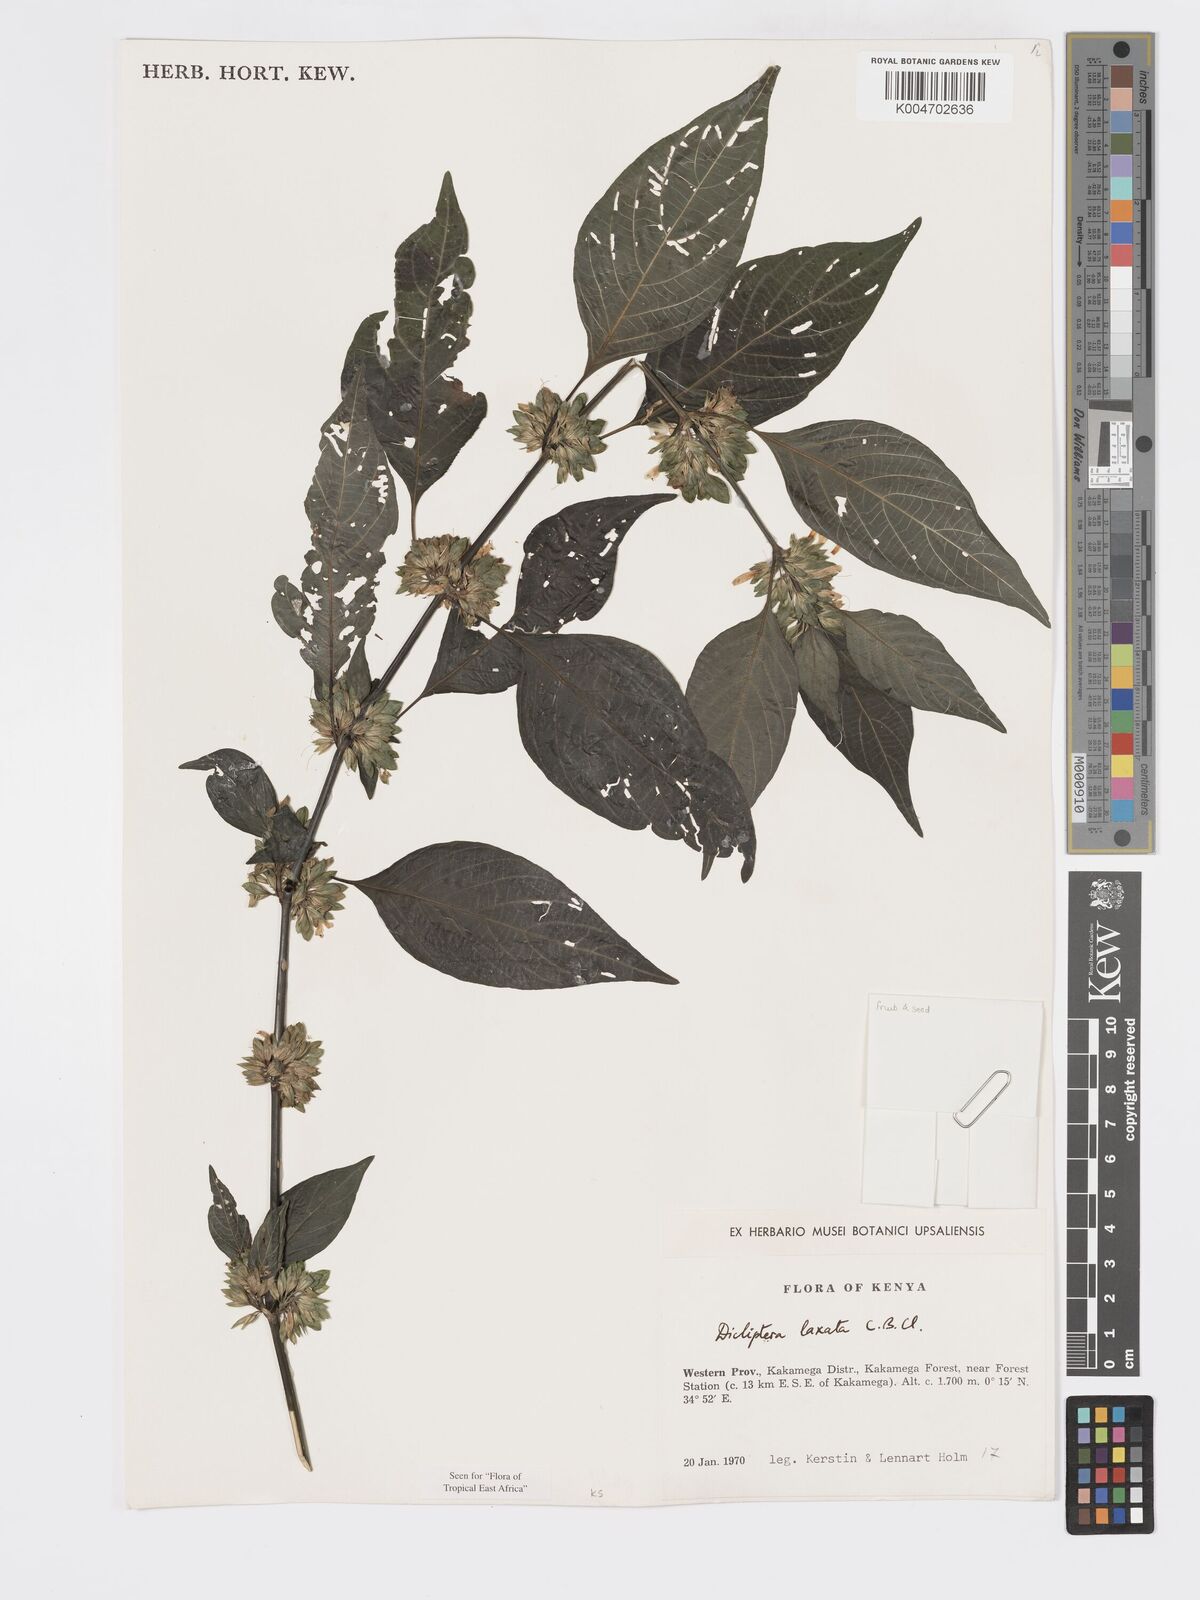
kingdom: Plantae
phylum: Tracheophyta
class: Magnoliopsida
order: Lamiales
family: Acanthaceae
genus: Dicliptera
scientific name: Dicliptera laxata
